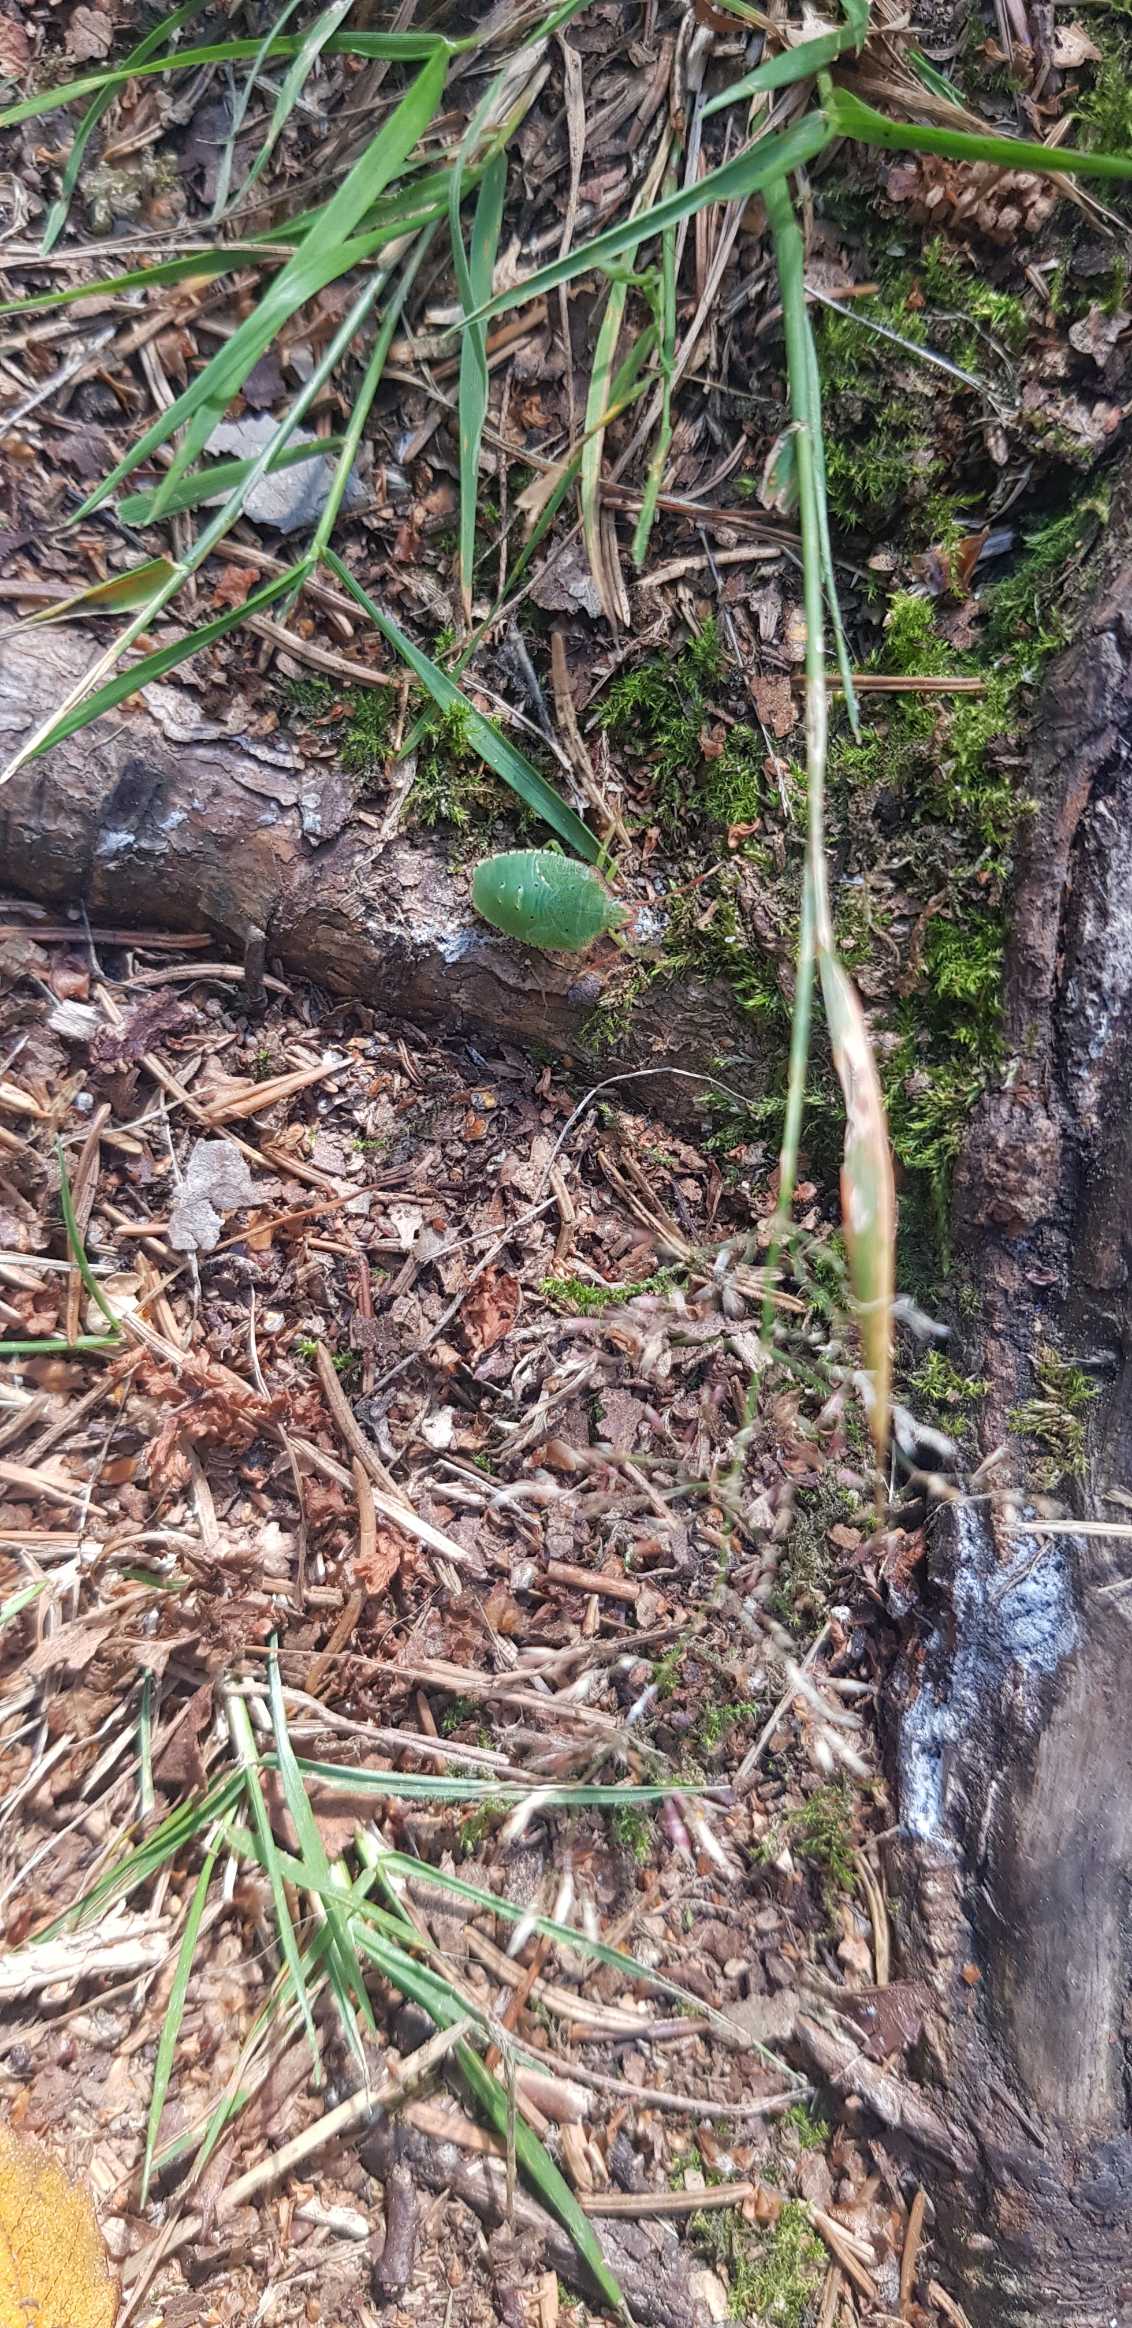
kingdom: Animalia
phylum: Arthropoda
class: Insecta
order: Hemiptera
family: Pentatomidae
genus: Palomena
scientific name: Palomena prasina
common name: Grøn bredtæge
